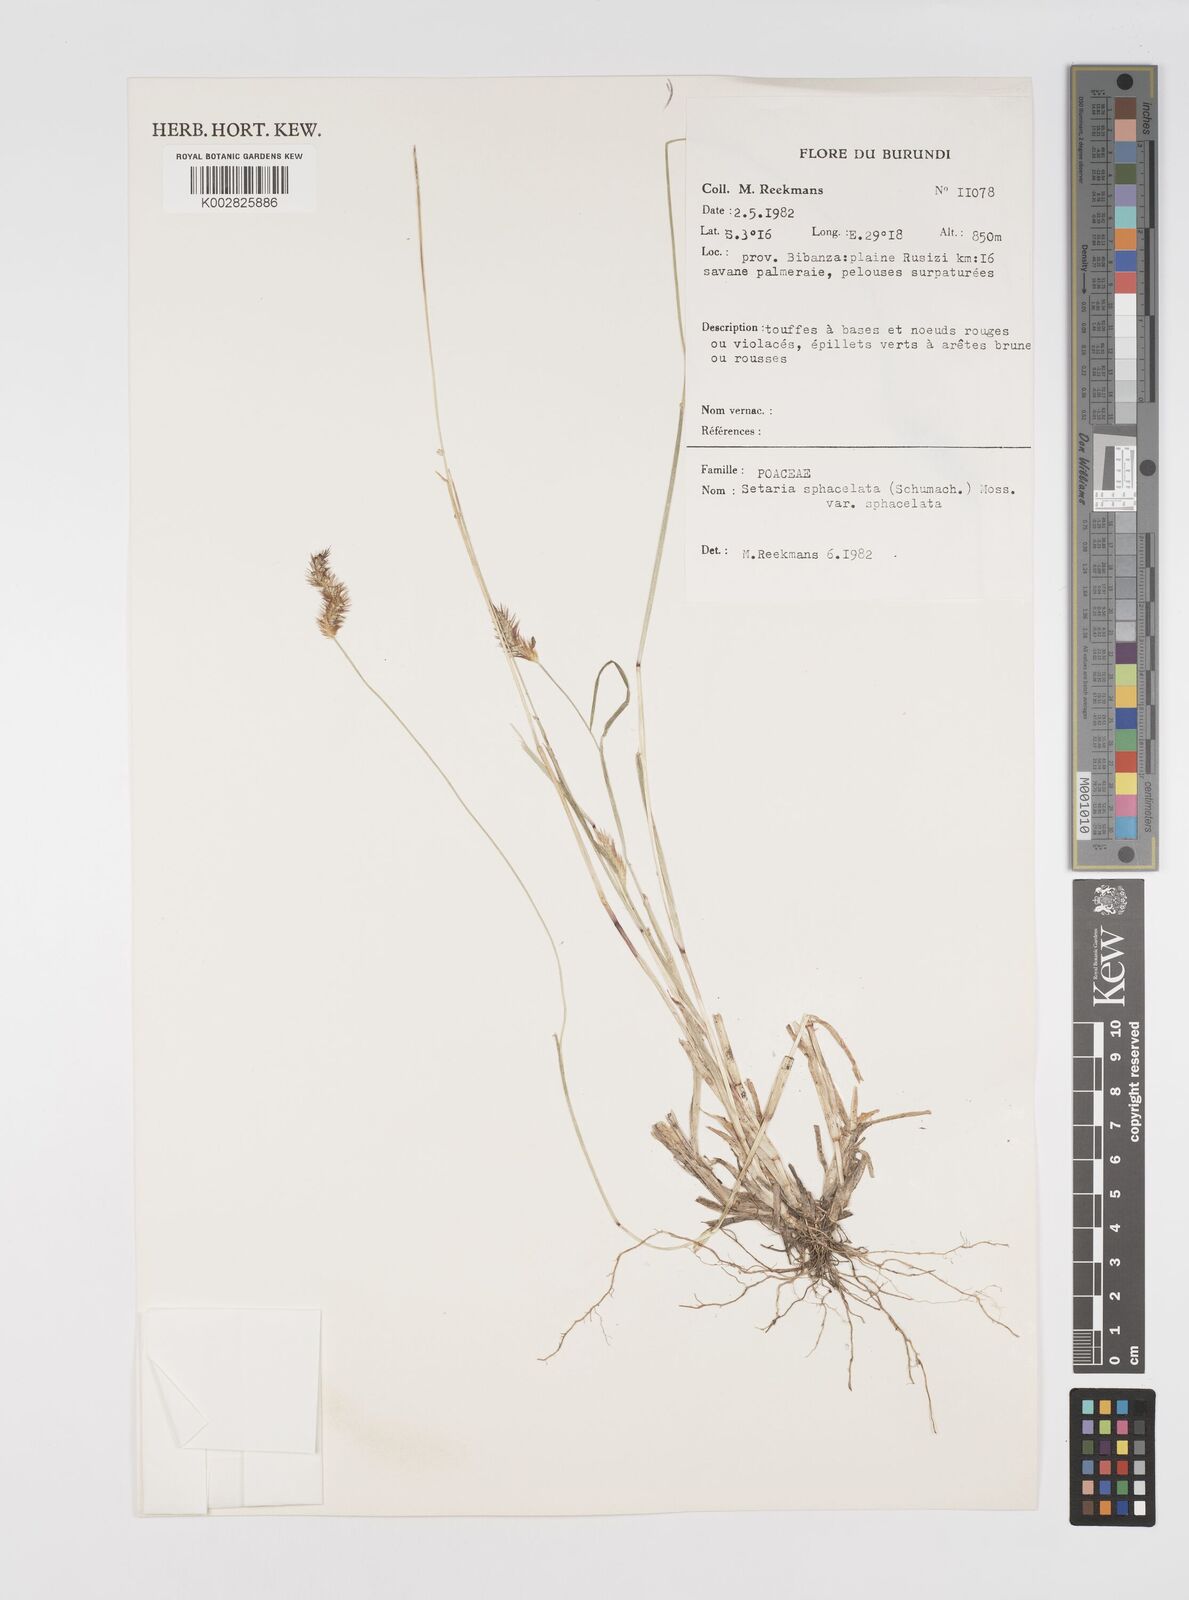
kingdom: Plantae
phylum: Tracheophyta
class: Liliopsida
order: Poales
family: Poaceae
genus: Setaria
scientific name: Setaria sphacelata
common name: African bristlegrass
